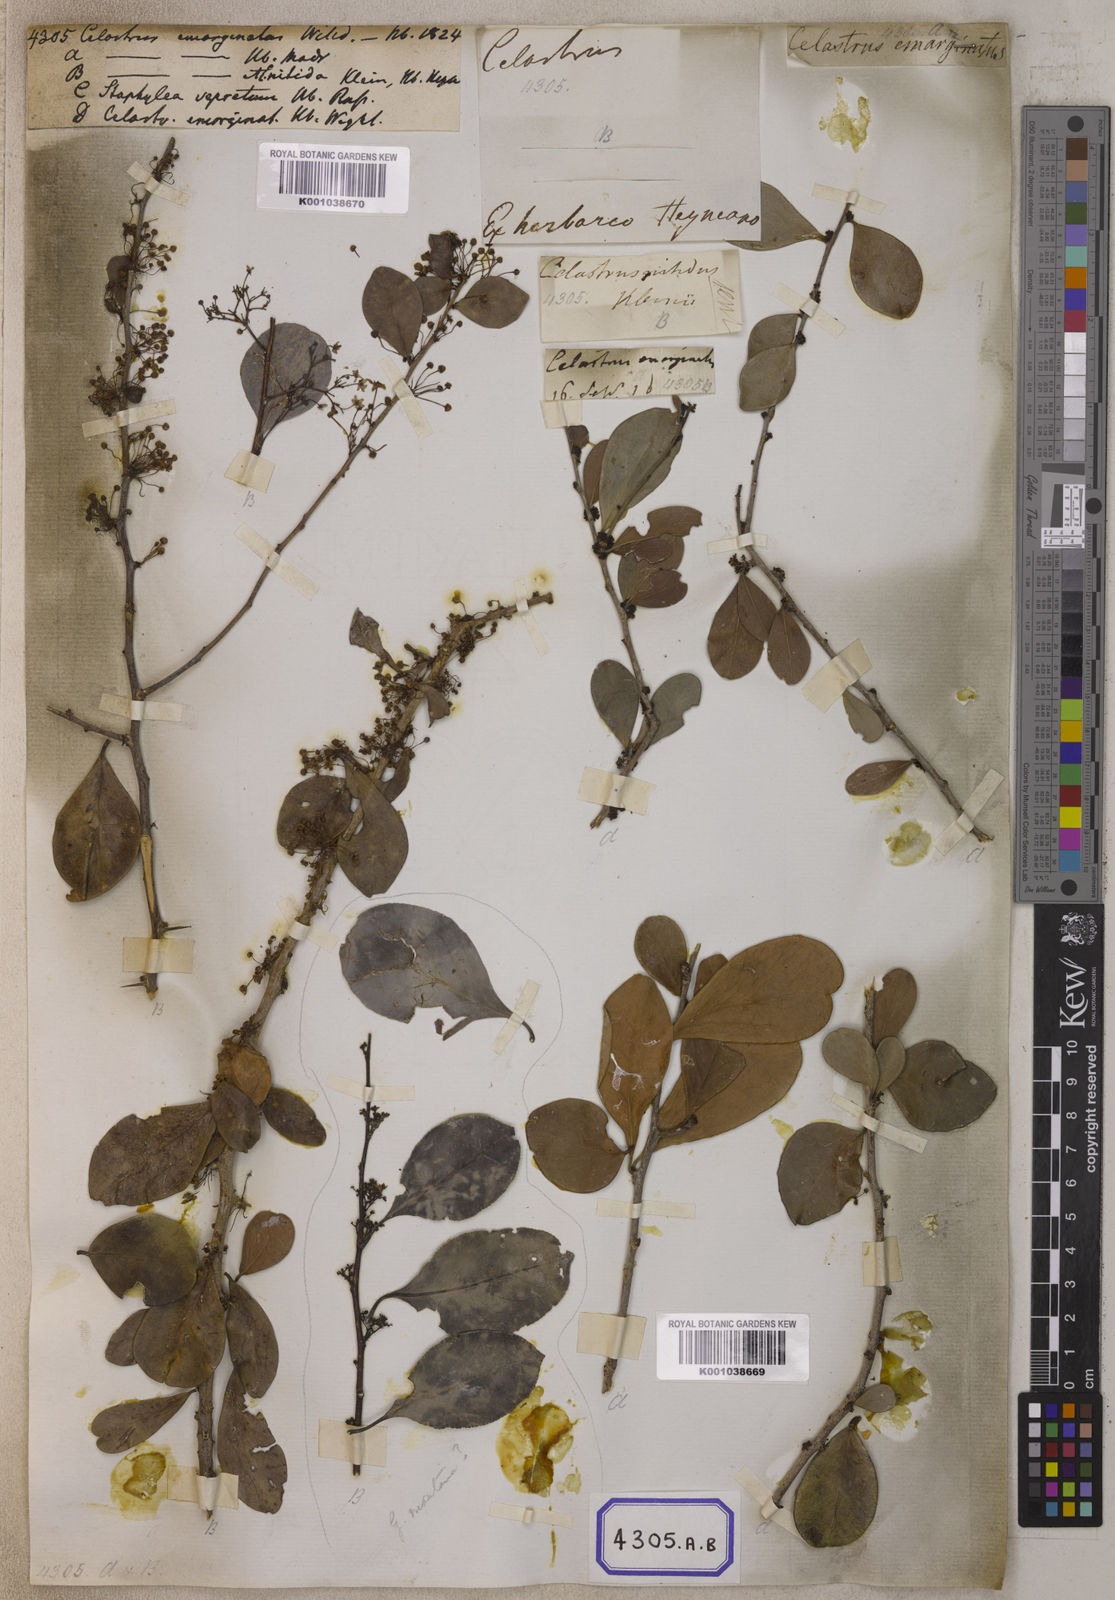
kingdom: Plantae
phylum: Tracheophyta
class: Magnoliopsida
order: Celastrales
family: Celastraceae
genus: Gymnosporia
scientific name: Gymnosporia emarginata
